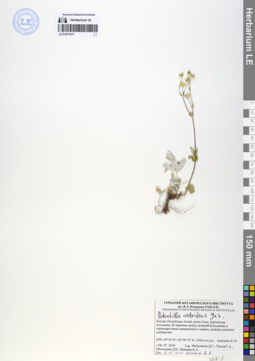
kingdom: Plantae
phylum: Tracheophyta
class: Magnoliopsida
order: Rosales
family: Rosaceae
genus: Potentilla
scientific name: Potentilla crebridens
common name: Congested cinquefoil
